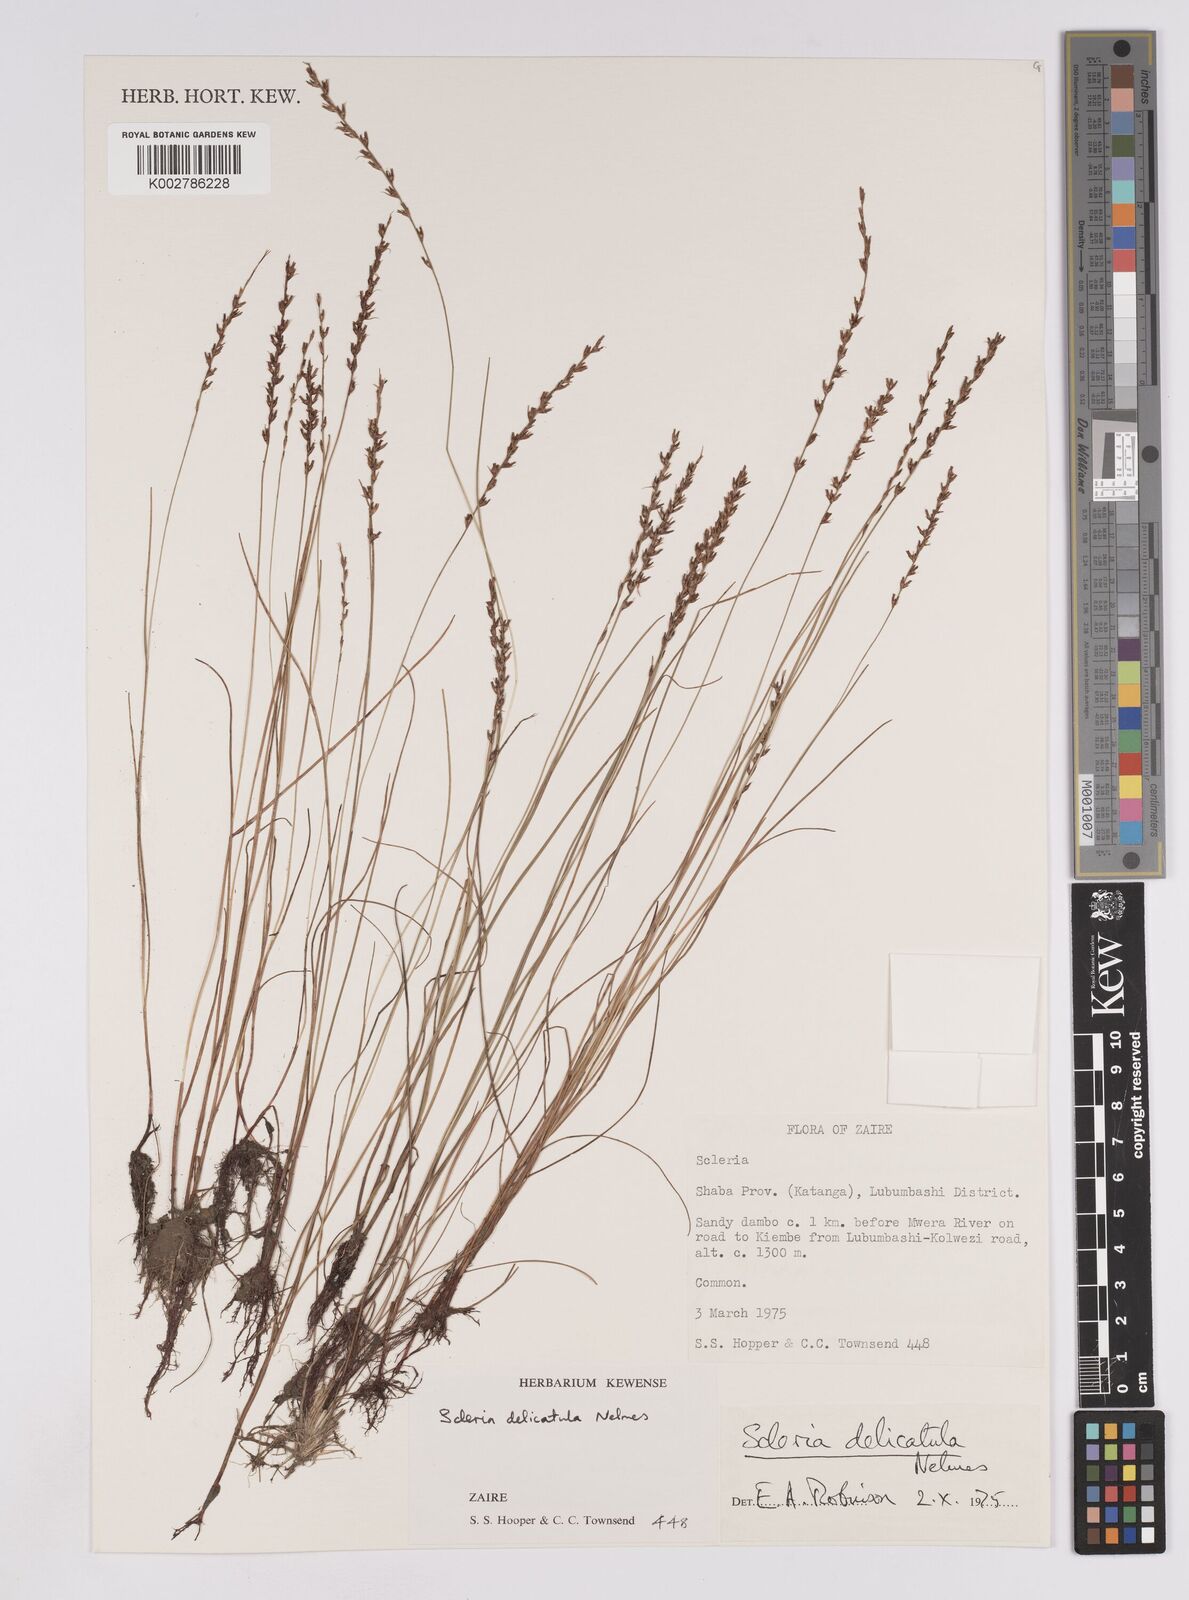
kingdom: Plantae
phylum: Tracheophyta
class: Liliopsida
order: Poales
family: Cyperaceae
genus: Scleria
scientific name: Scleria delicatula
